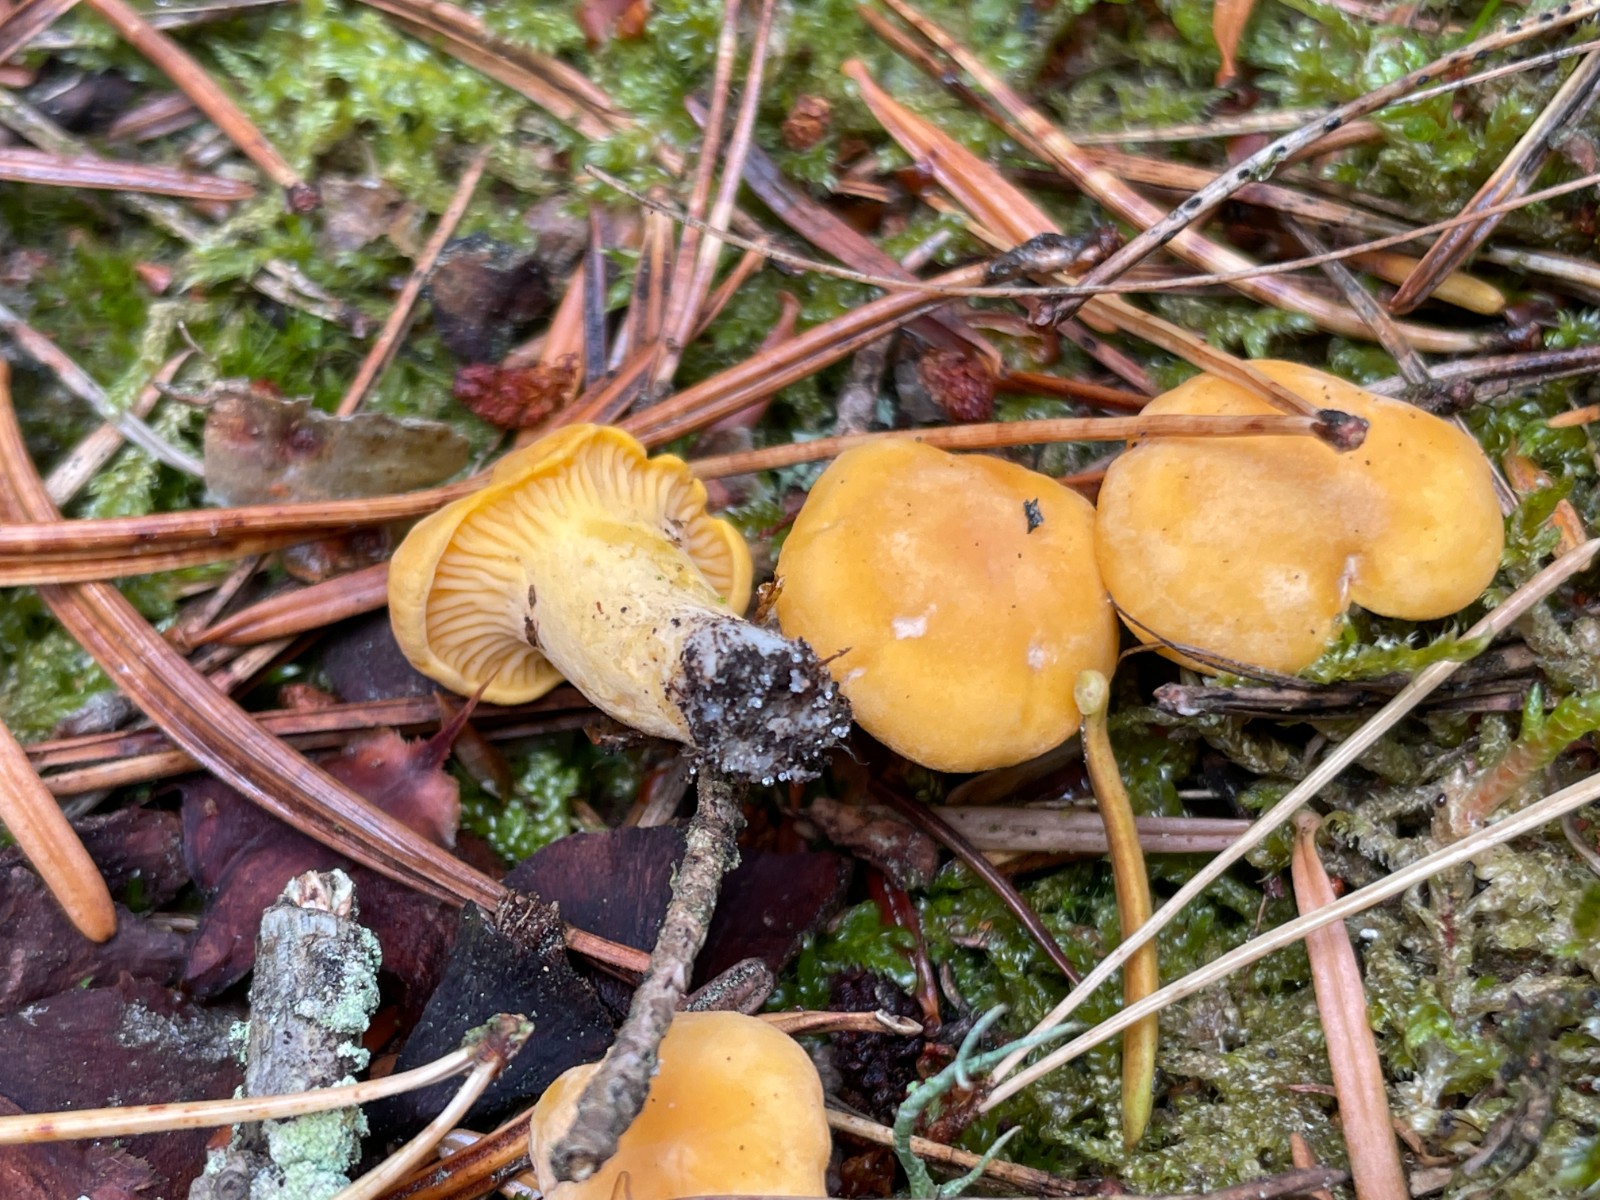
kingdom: Fungi
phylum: Basidiomycota
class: Agaricomycetes
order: Cantharellales
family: Hydnaceae
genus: Cantharellus
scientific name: Cantharellus cibarius
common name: almindelig kantarel
